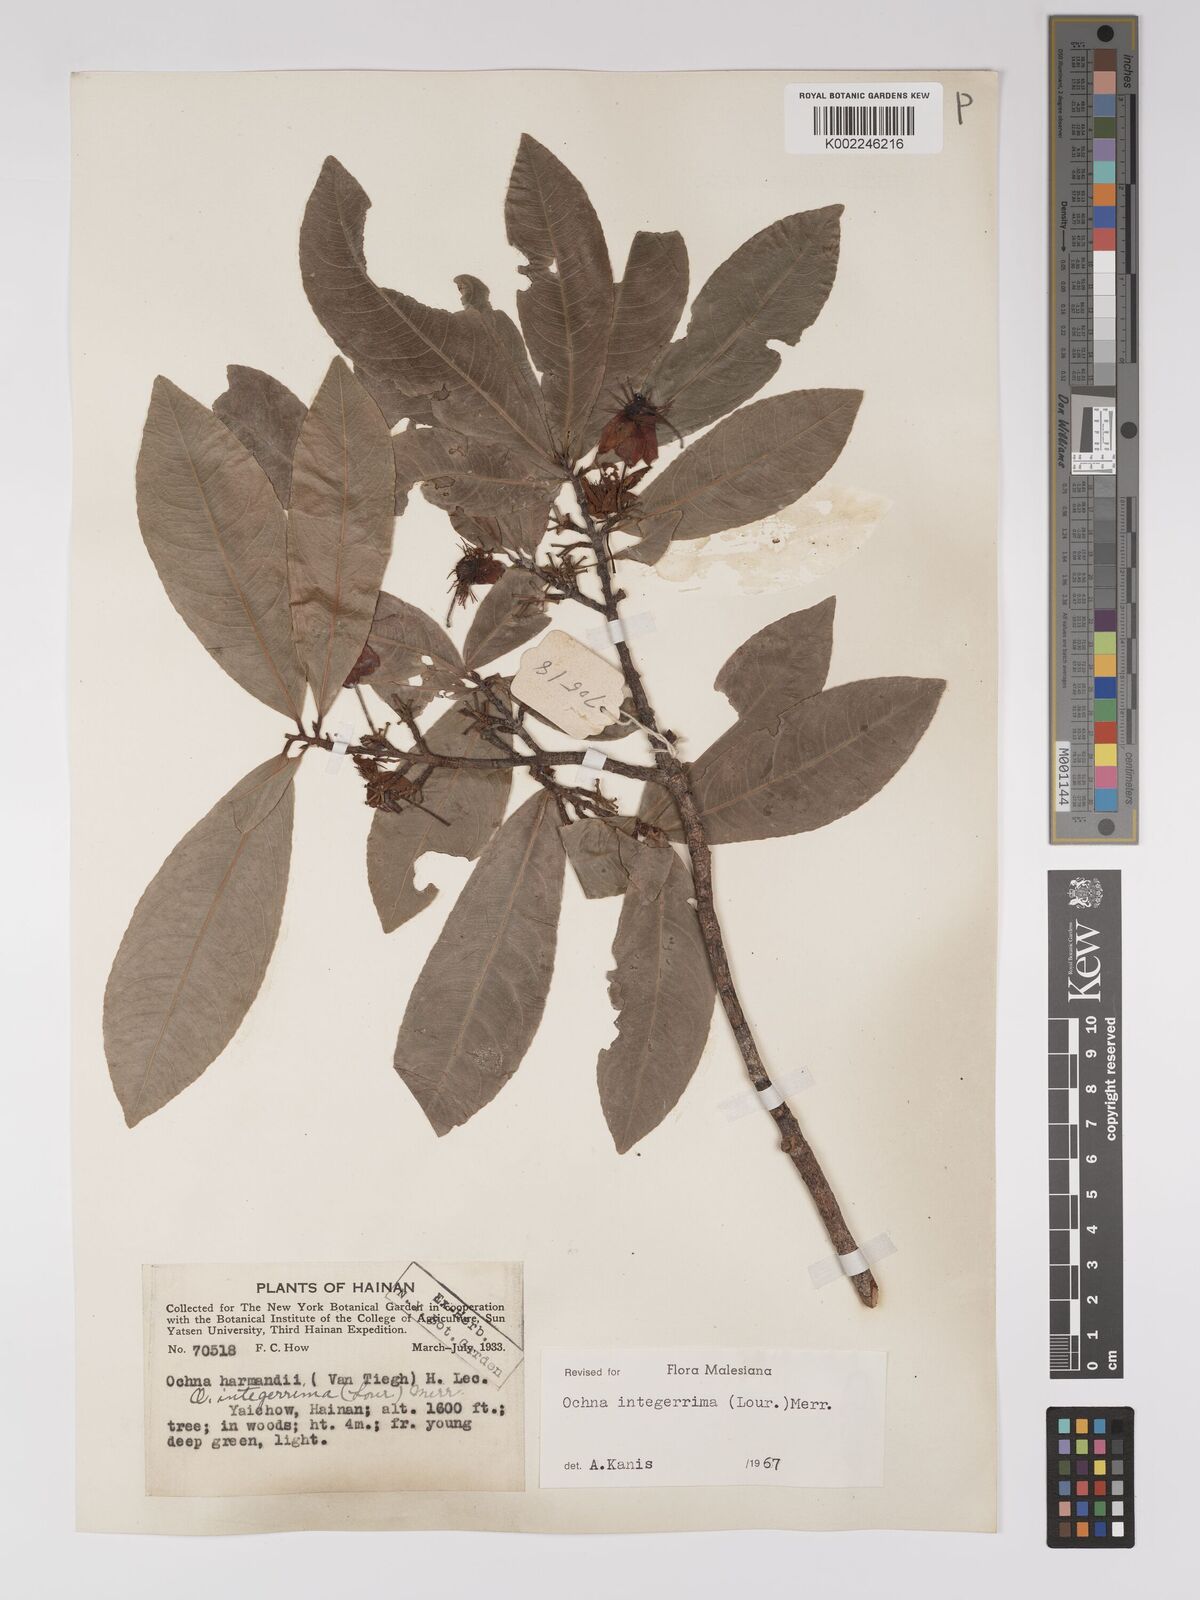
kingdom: Plantae
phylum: Tracheophyta
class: Magnoliopsida
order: Malpighiales
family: Ochnaceae
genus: Ochna
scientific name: Ochna integerrima
